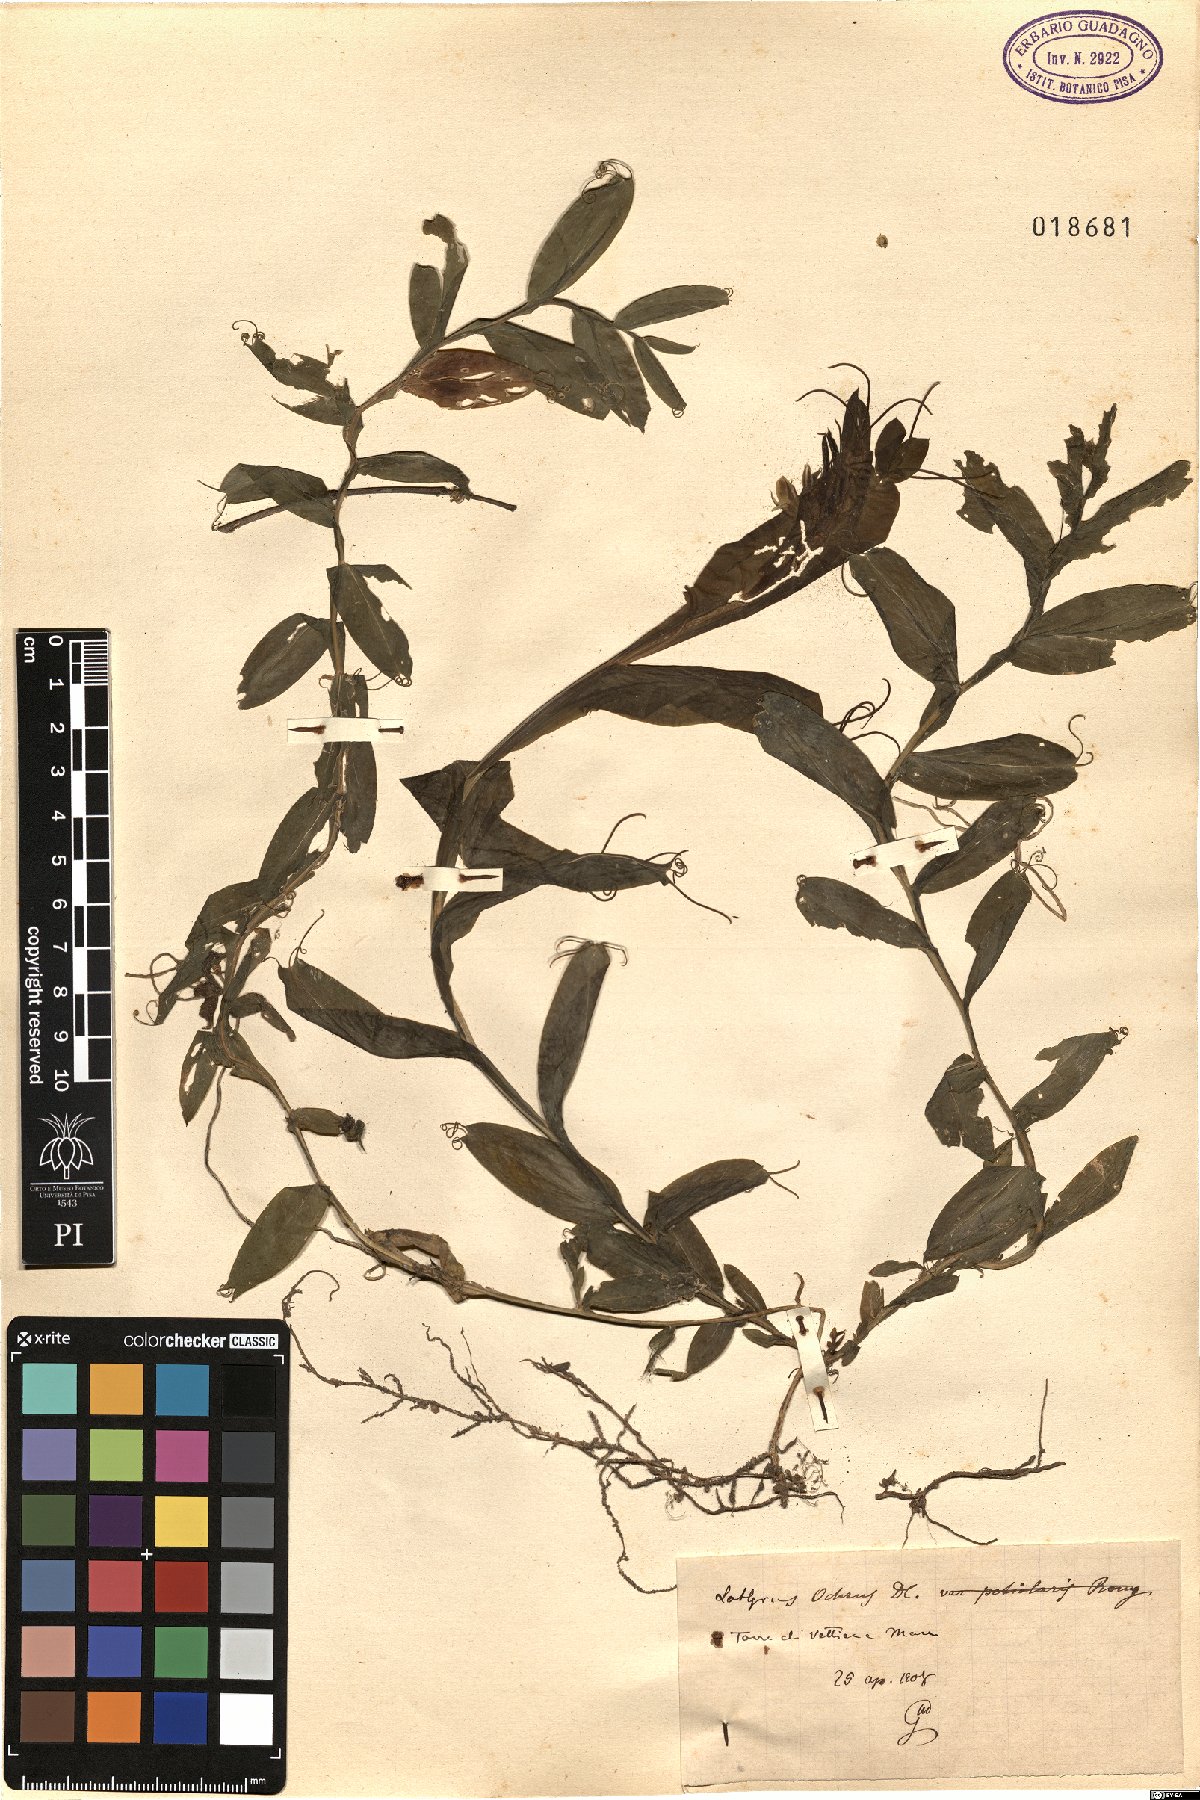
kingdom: Plantae
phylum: Tracheophyta
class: Magnoliopsida
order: Fabales
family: Fabaceae
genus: Lathyrus
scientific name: Lathyrus ochrus
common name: Winged vetchling
